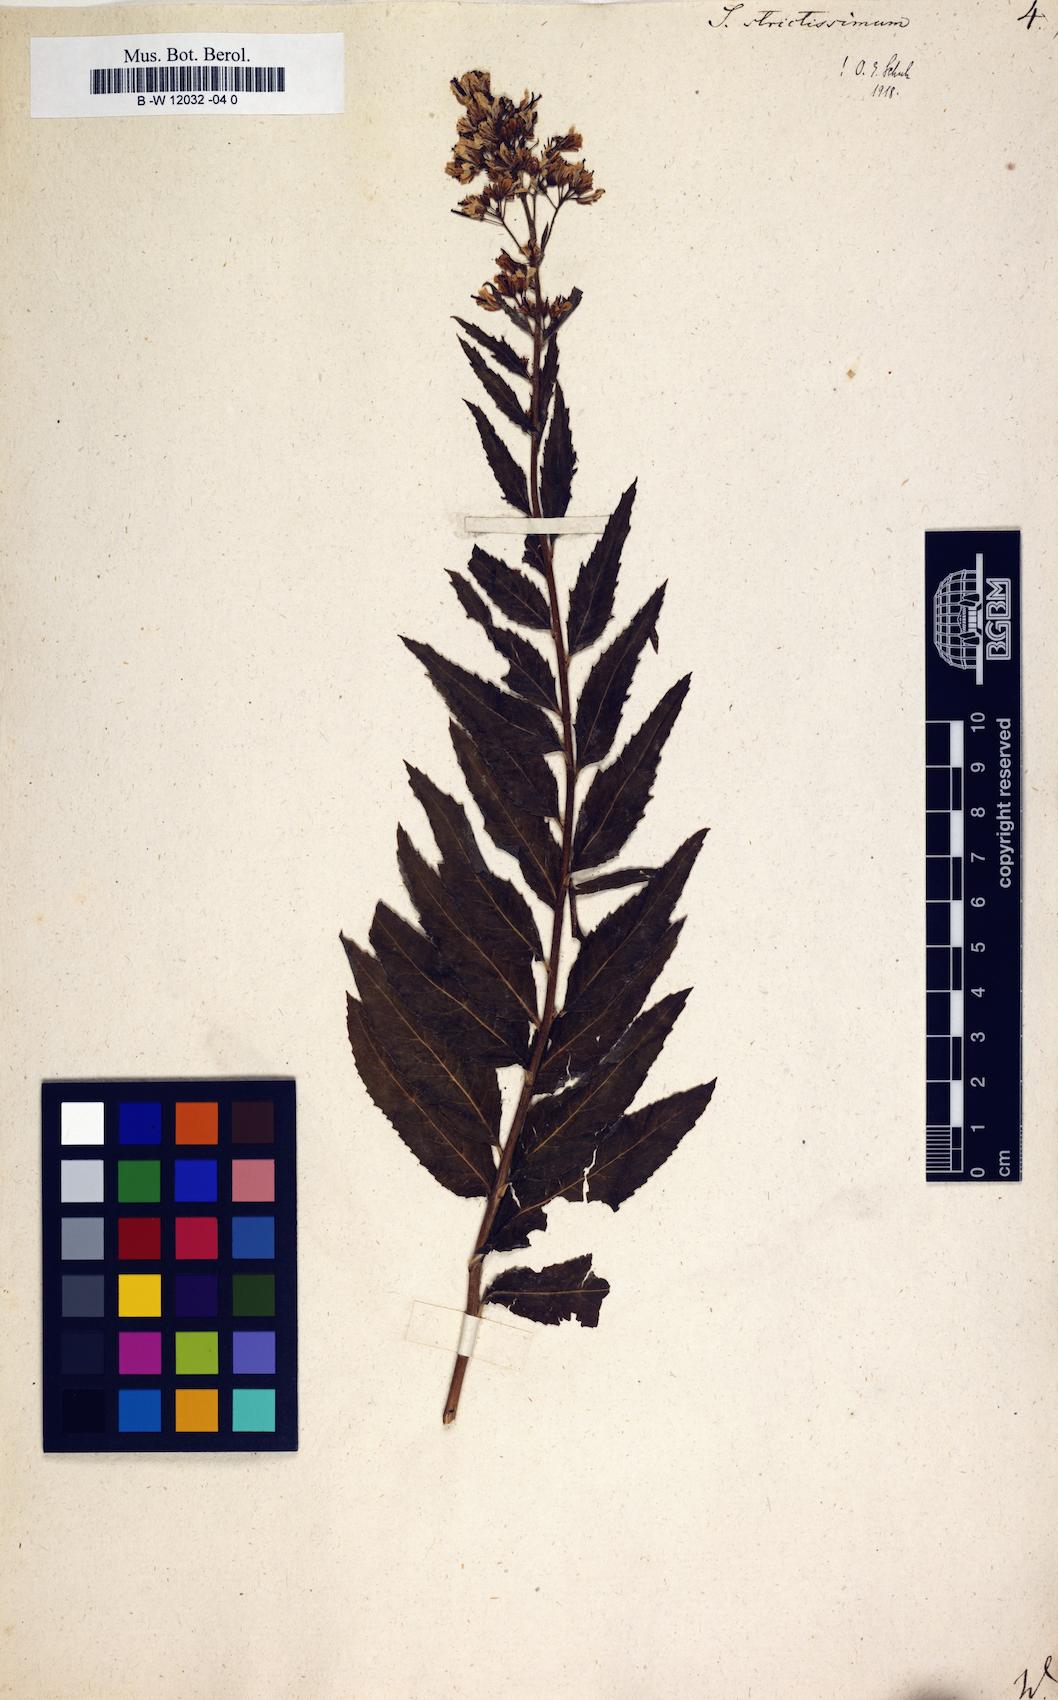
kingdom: Plantae
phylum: Tracheophyta
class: Magnoliopsida
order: Brassicales
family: Brassicaceae
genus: Sisymbrium
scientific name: Sisymbrium strictissimum
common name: Perennial rocket
